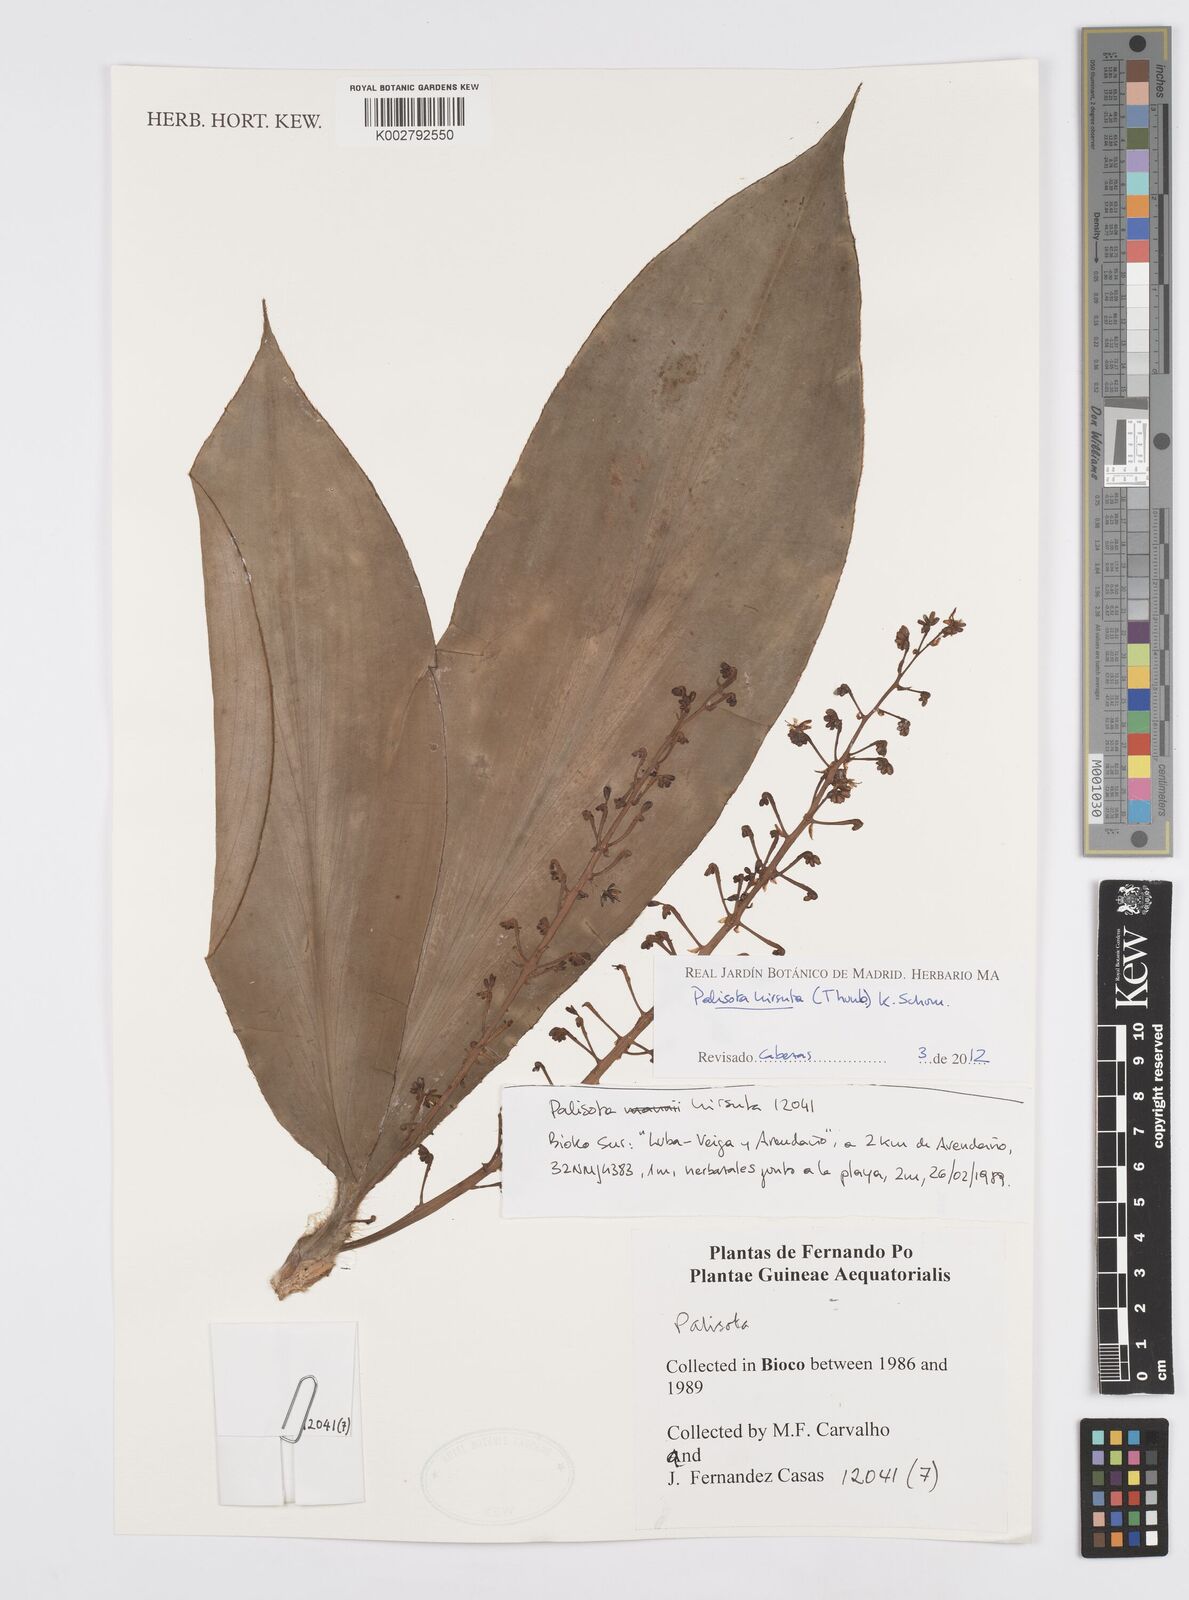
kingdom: Plantae
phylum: Tracheophyta
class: Liliopsida
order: Commelinales
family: Commelinaceae
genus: Palisota
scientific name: Palisota hirsuta
